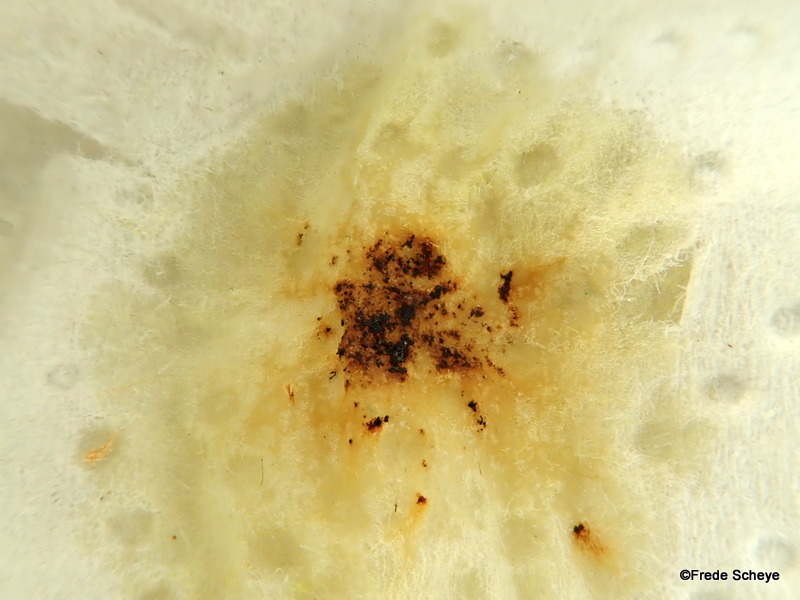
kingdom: Fungi
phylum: Ascomycota
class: Sordariomycetes
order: Xylariales
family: Hypoxylaceae
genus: Hypoxylon
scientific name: Hypoxylon petriniae
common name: nedsænket kulbær
